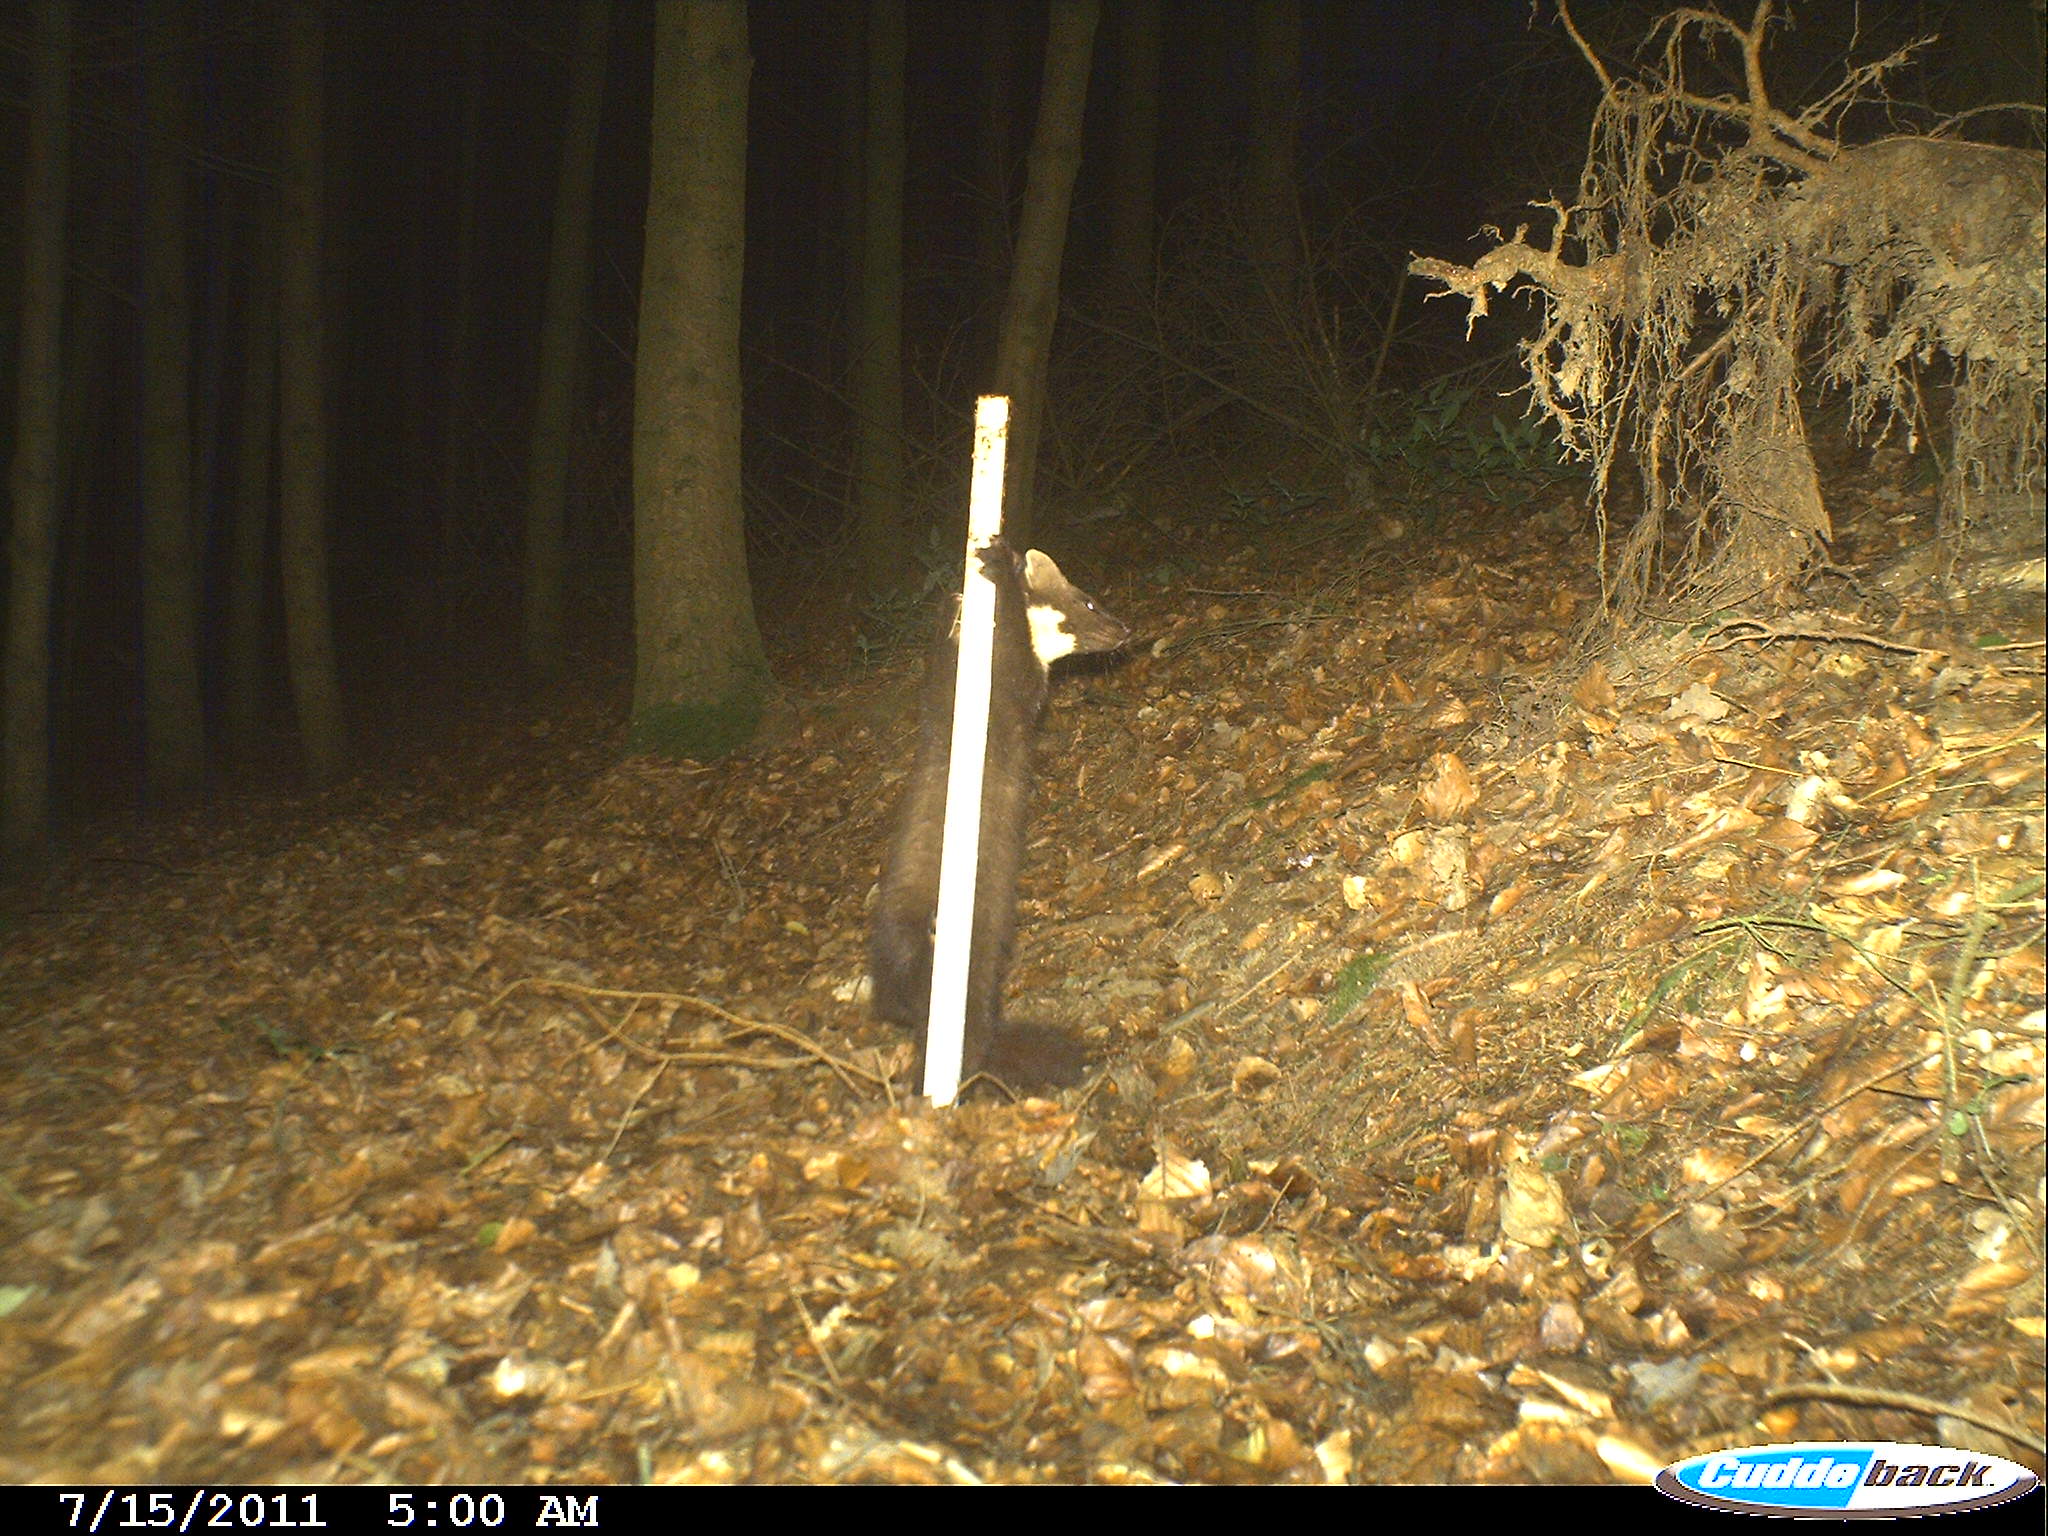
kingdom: Animalia
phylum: Chordata
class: Mammalia
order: Carnivora
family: Mustelidae
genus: Martes
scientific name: Martes
